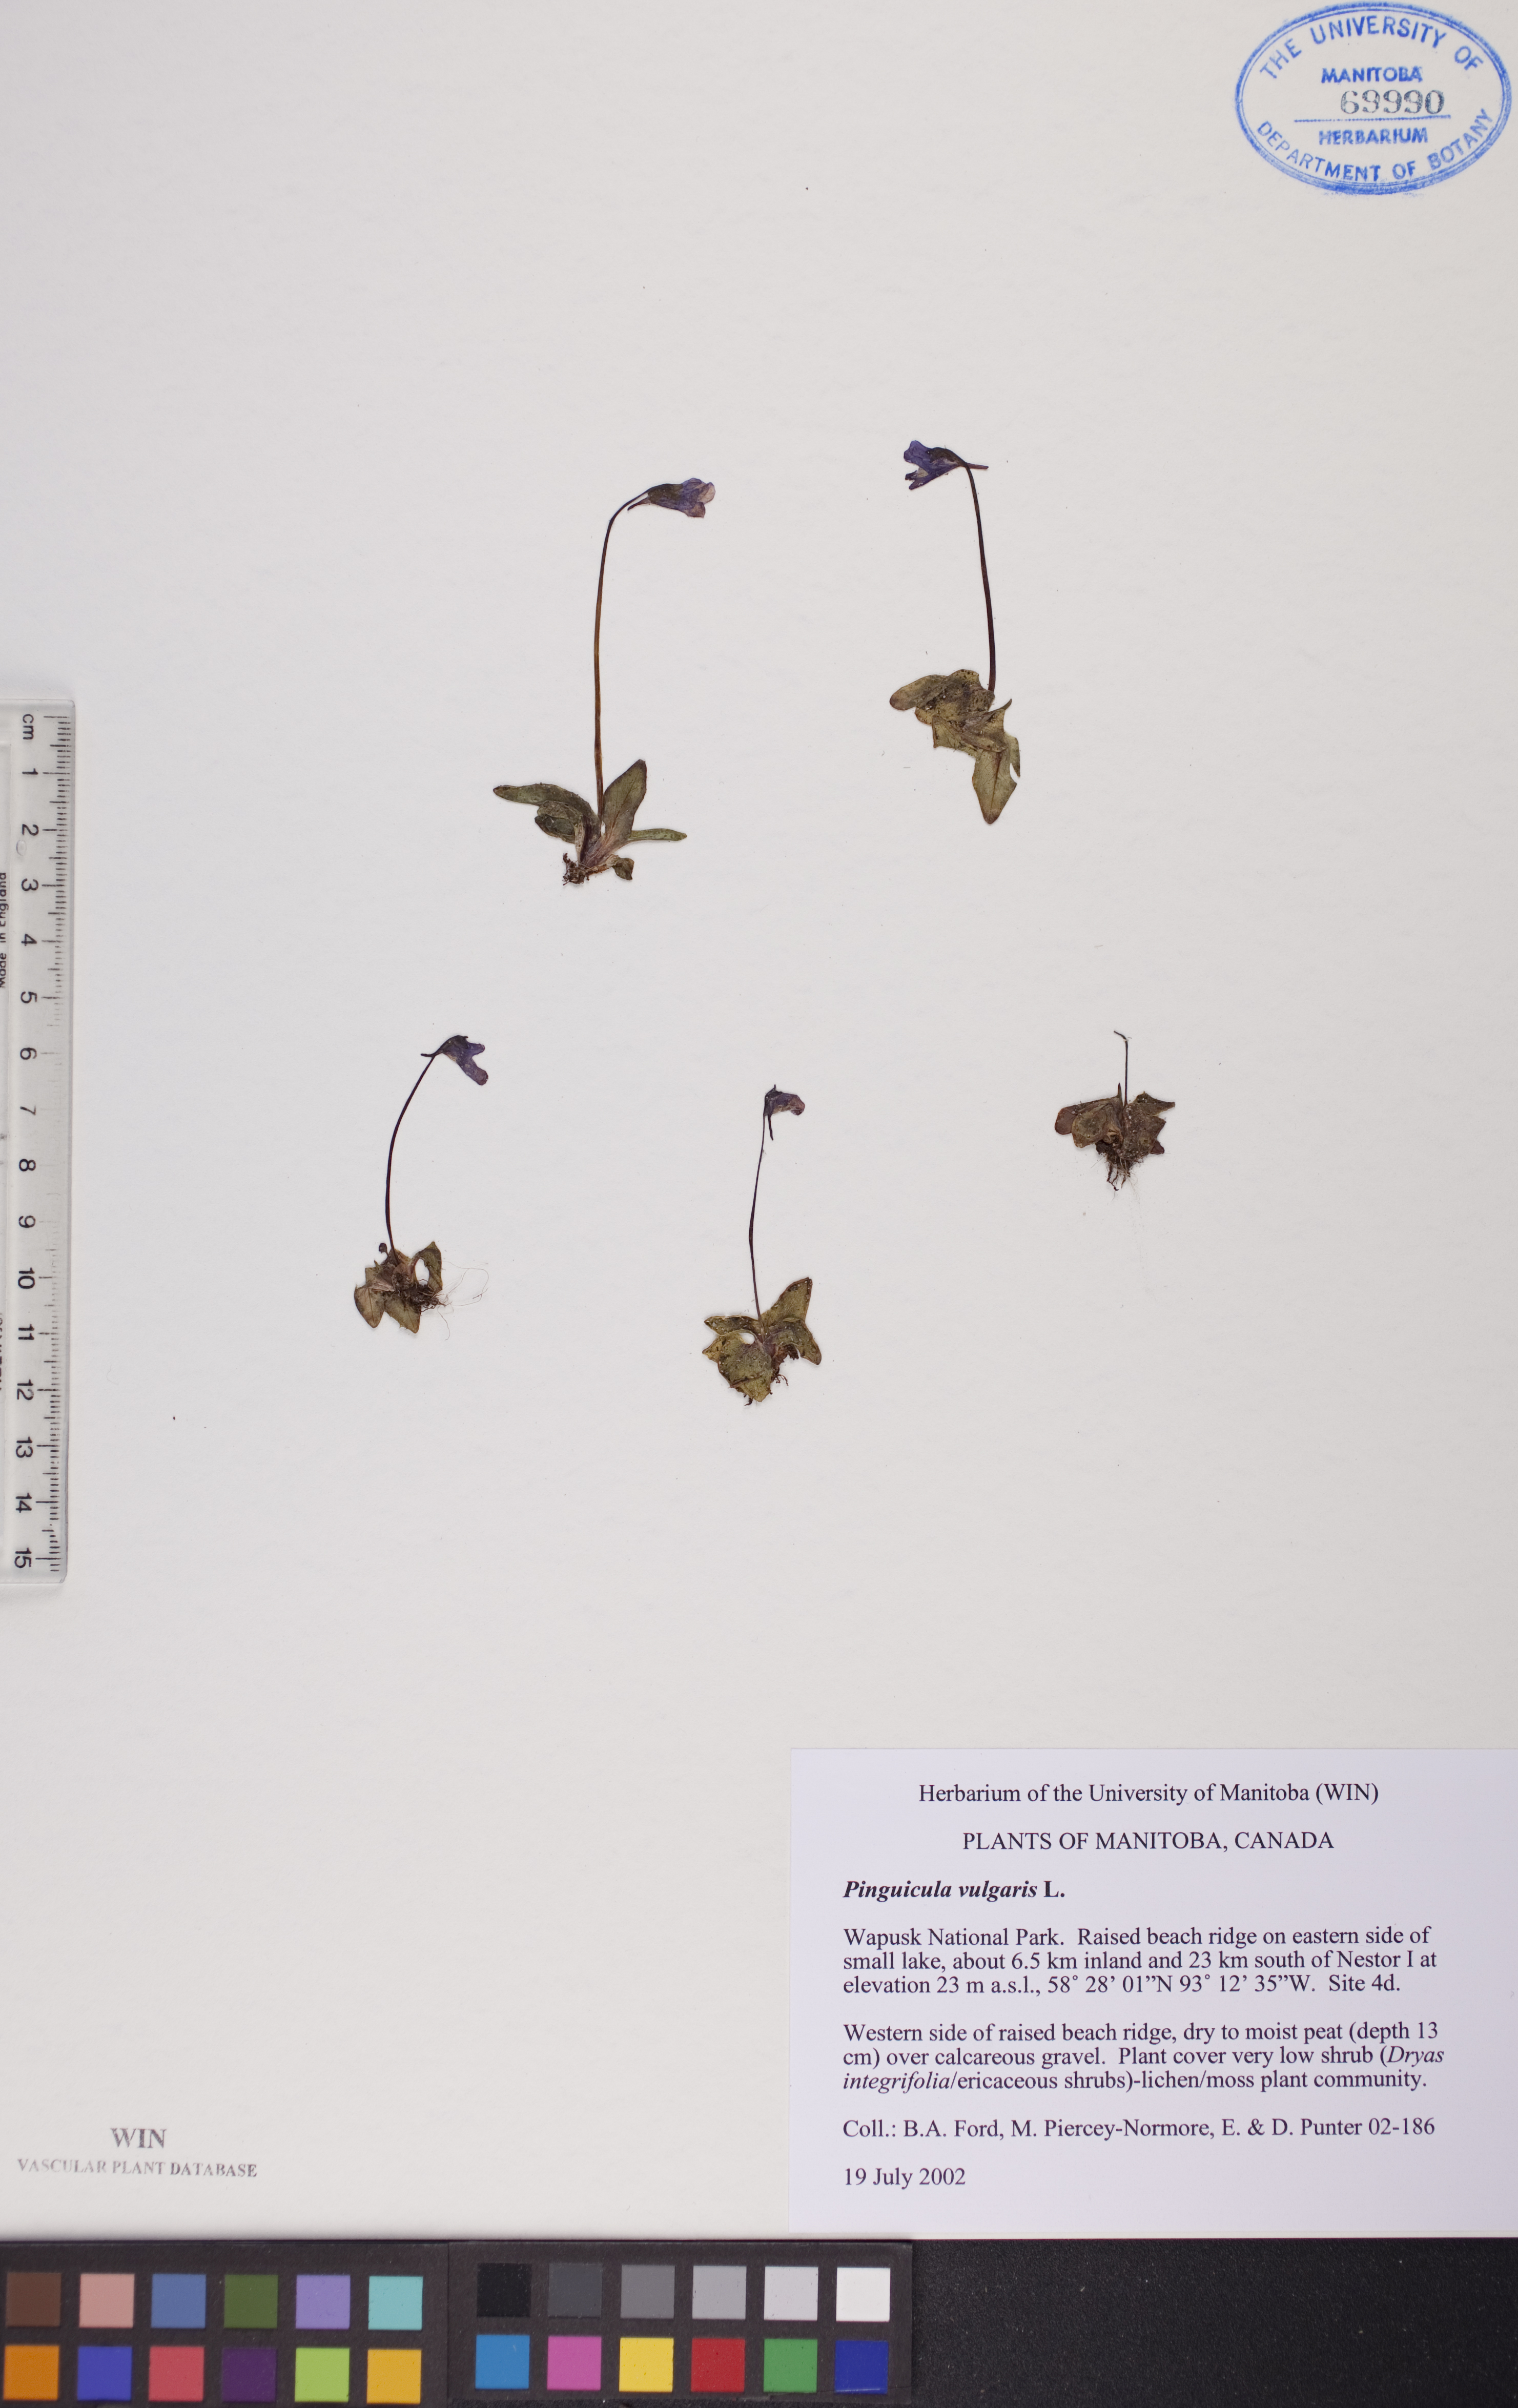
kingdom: Plantae
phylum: Tracheophyta
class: Magnoliopsida
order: Lamiales
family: Lentibulariaceae
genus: Pinguicula
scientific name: Pinguicula vulgaris
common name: Common butterwort
